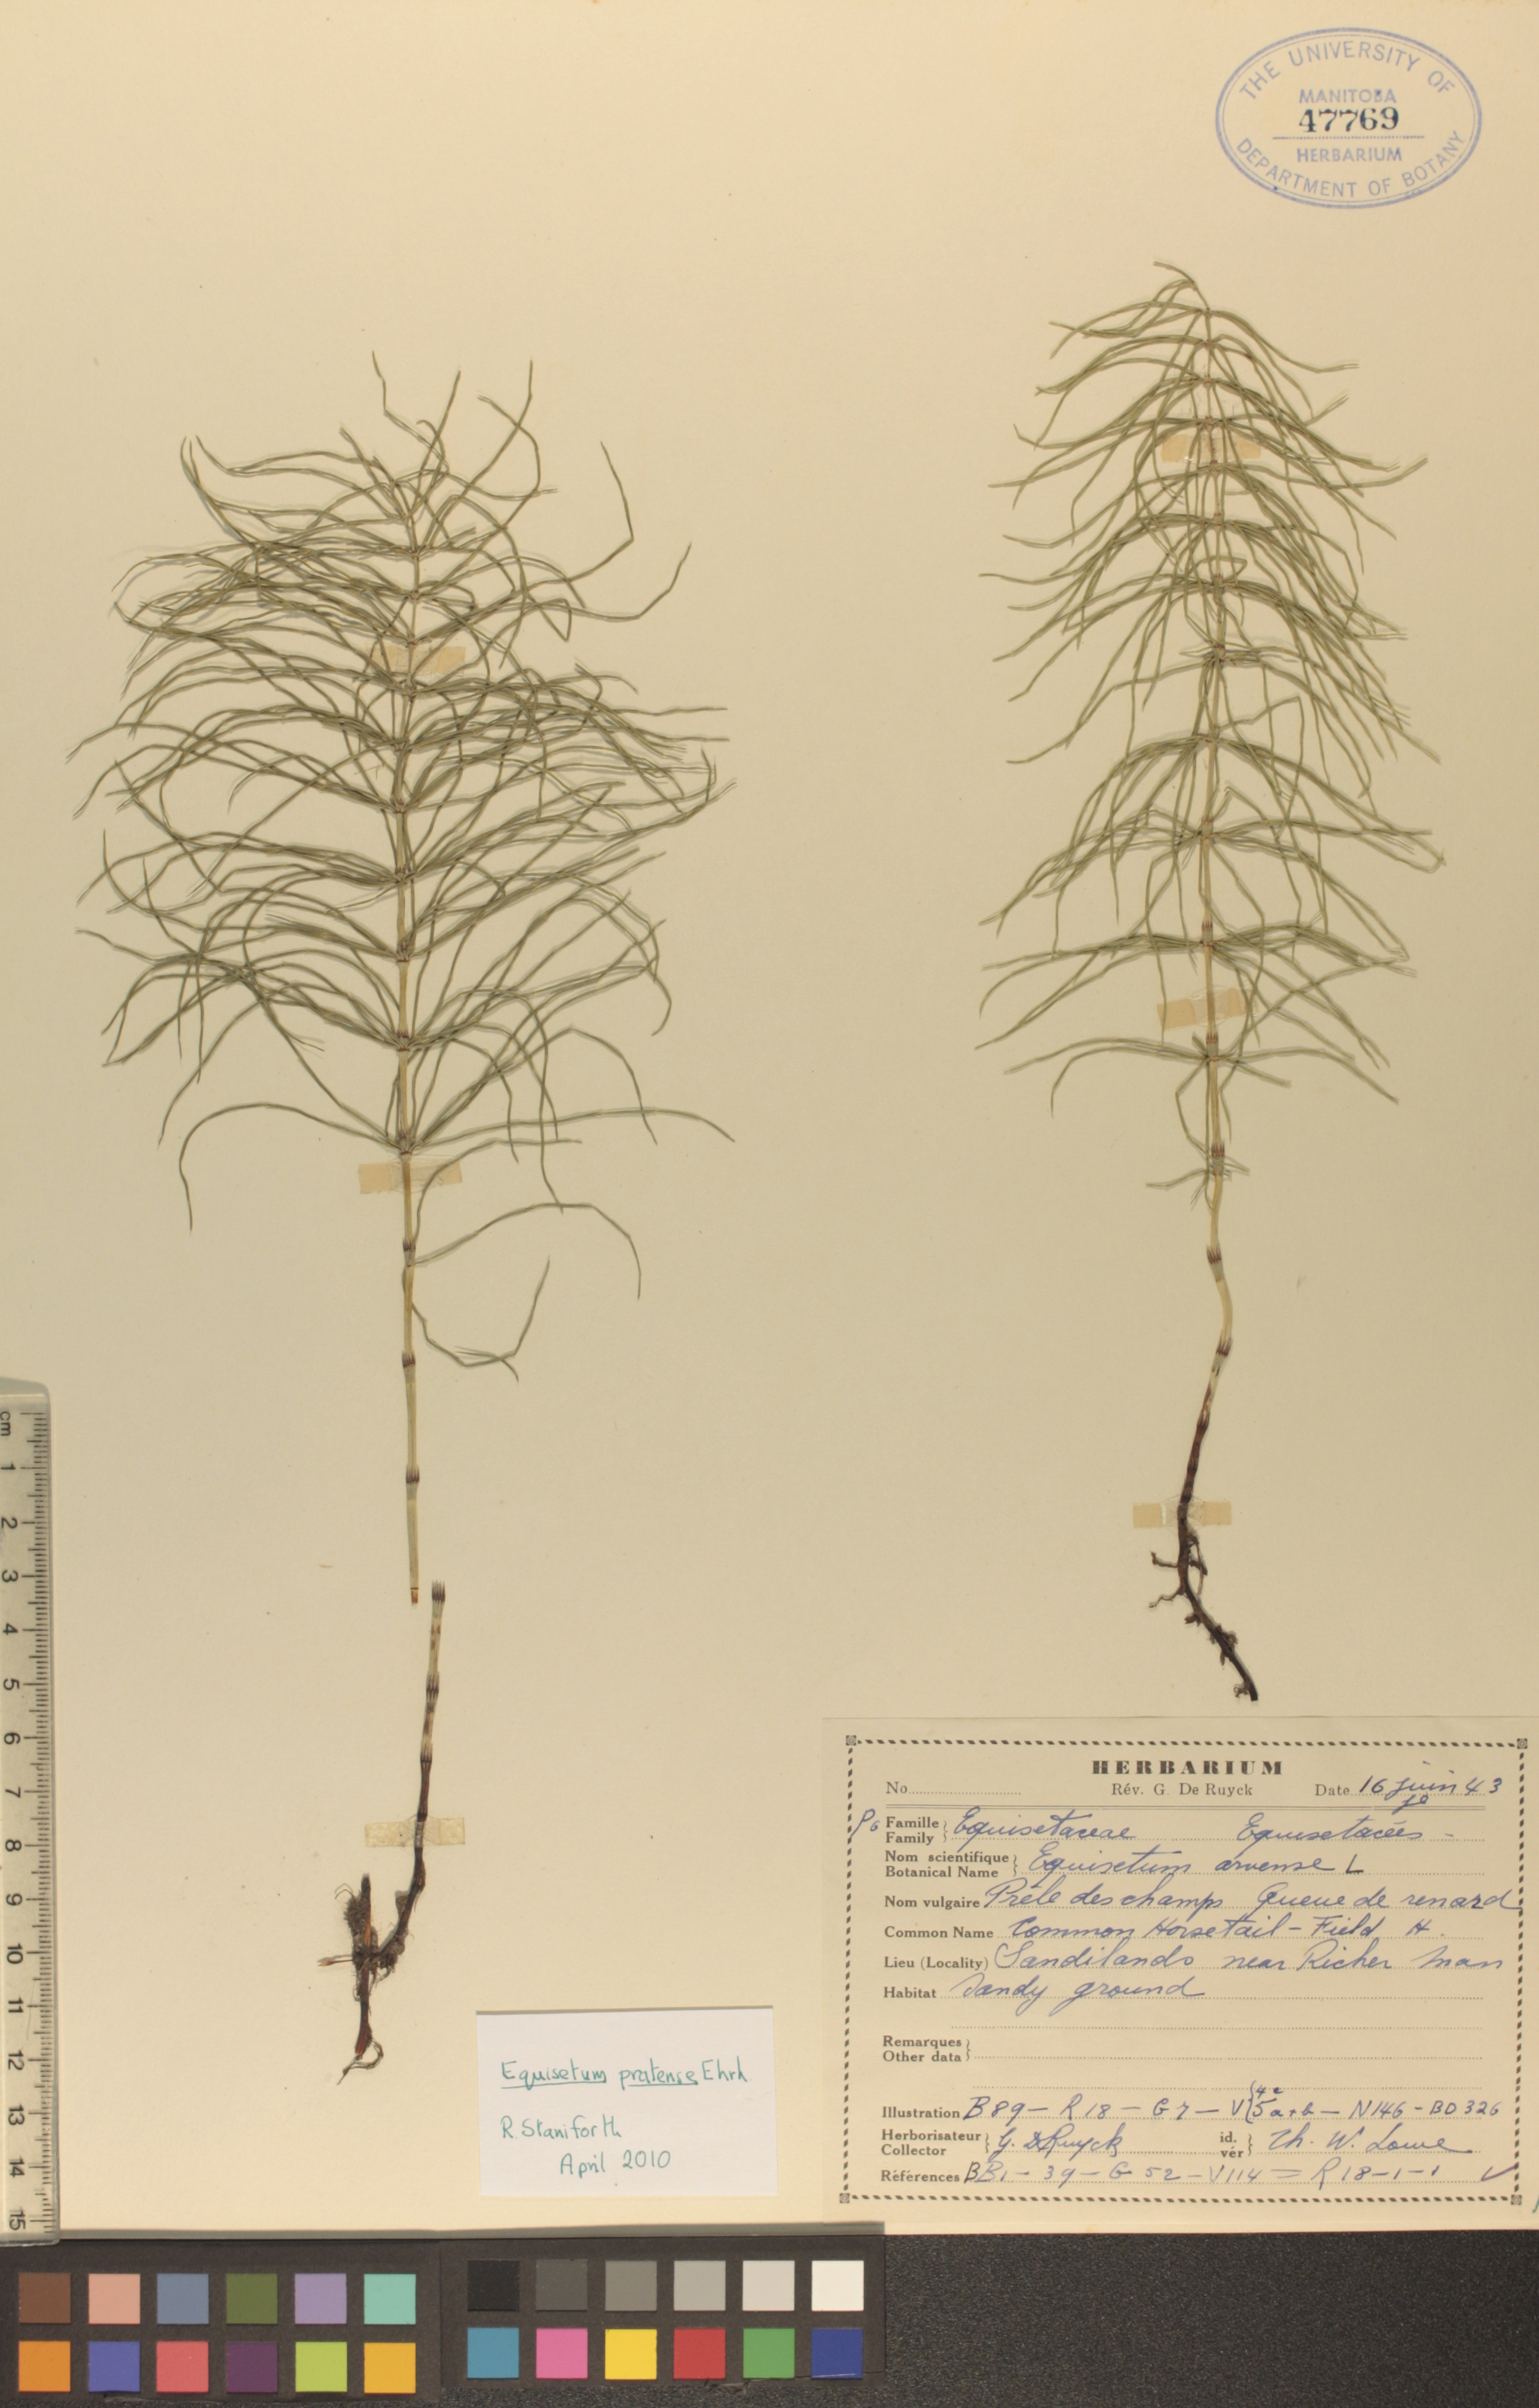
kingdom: Plantae
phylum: Tracheophyta
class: Polypodiopsida
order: Equisetales
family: Equisetaceae
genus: Equisetum
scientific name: Equisetum pratense
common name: Meadow horsetail
